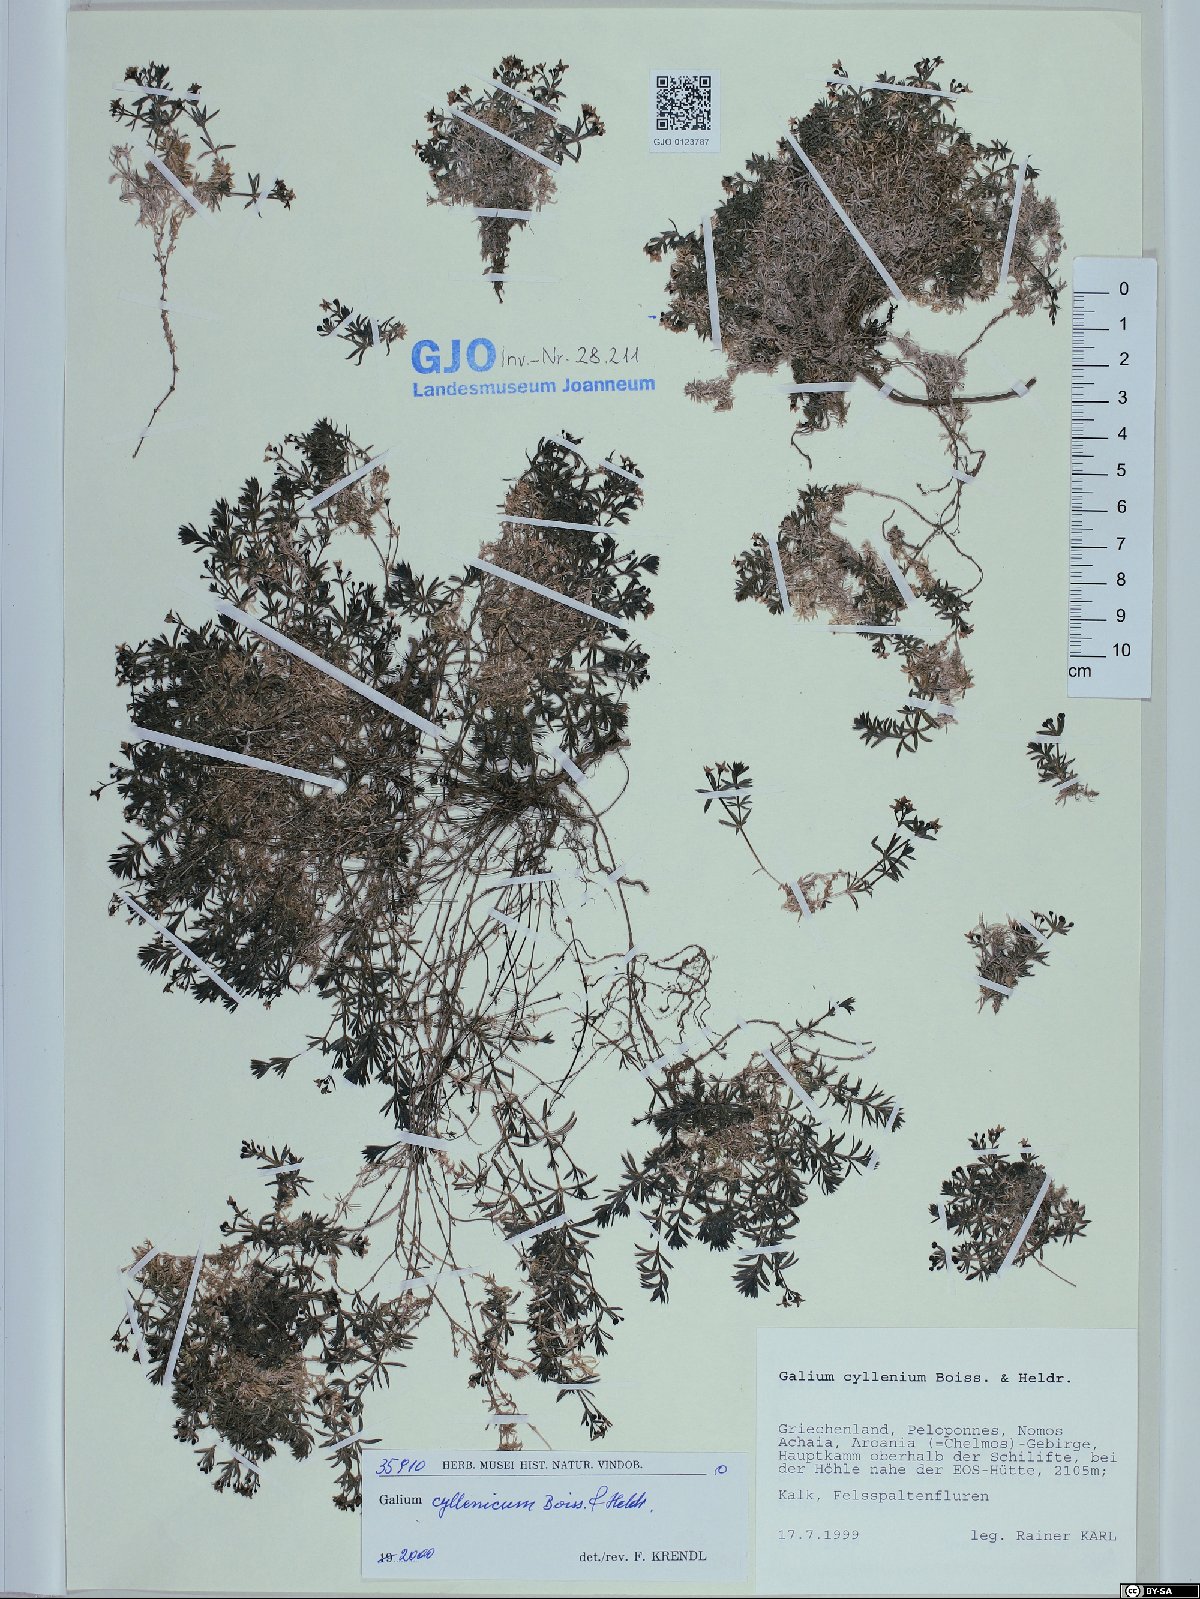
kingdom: Plantae
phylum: Tracheophyta
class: Magnoliopsida
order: Gentianales
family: Rubiaceae
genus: Galium
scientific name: Galium cyllenium
